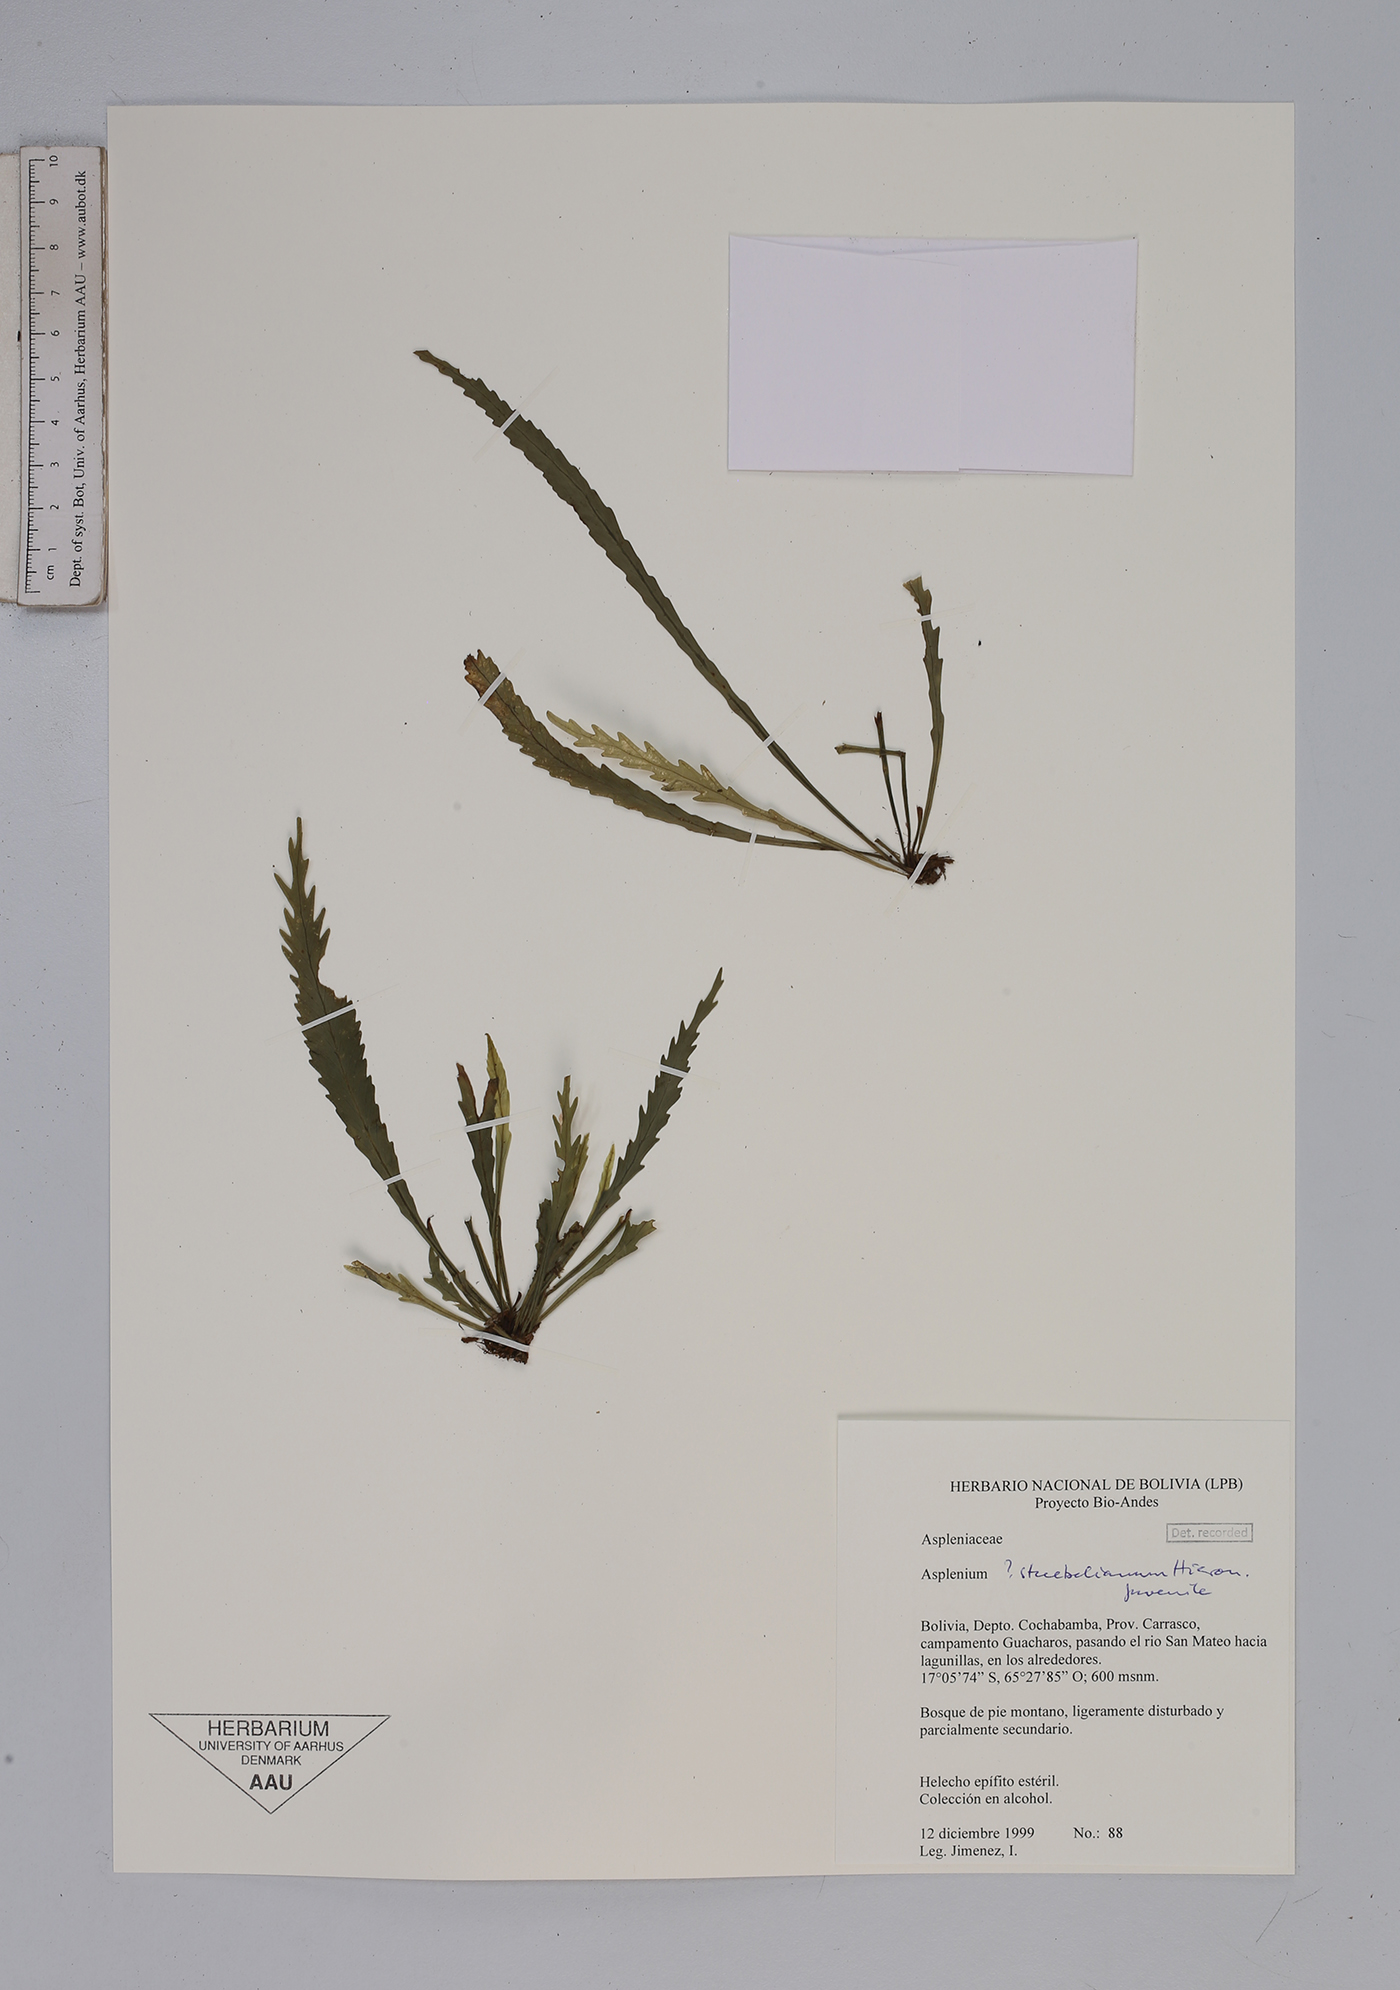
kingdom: Plantae
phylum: Tracheophyta
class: Polypodiopsida
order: Polypodiales
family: Aspleniaceae
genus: Asplenium
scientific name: Asplenium stuebelianum
